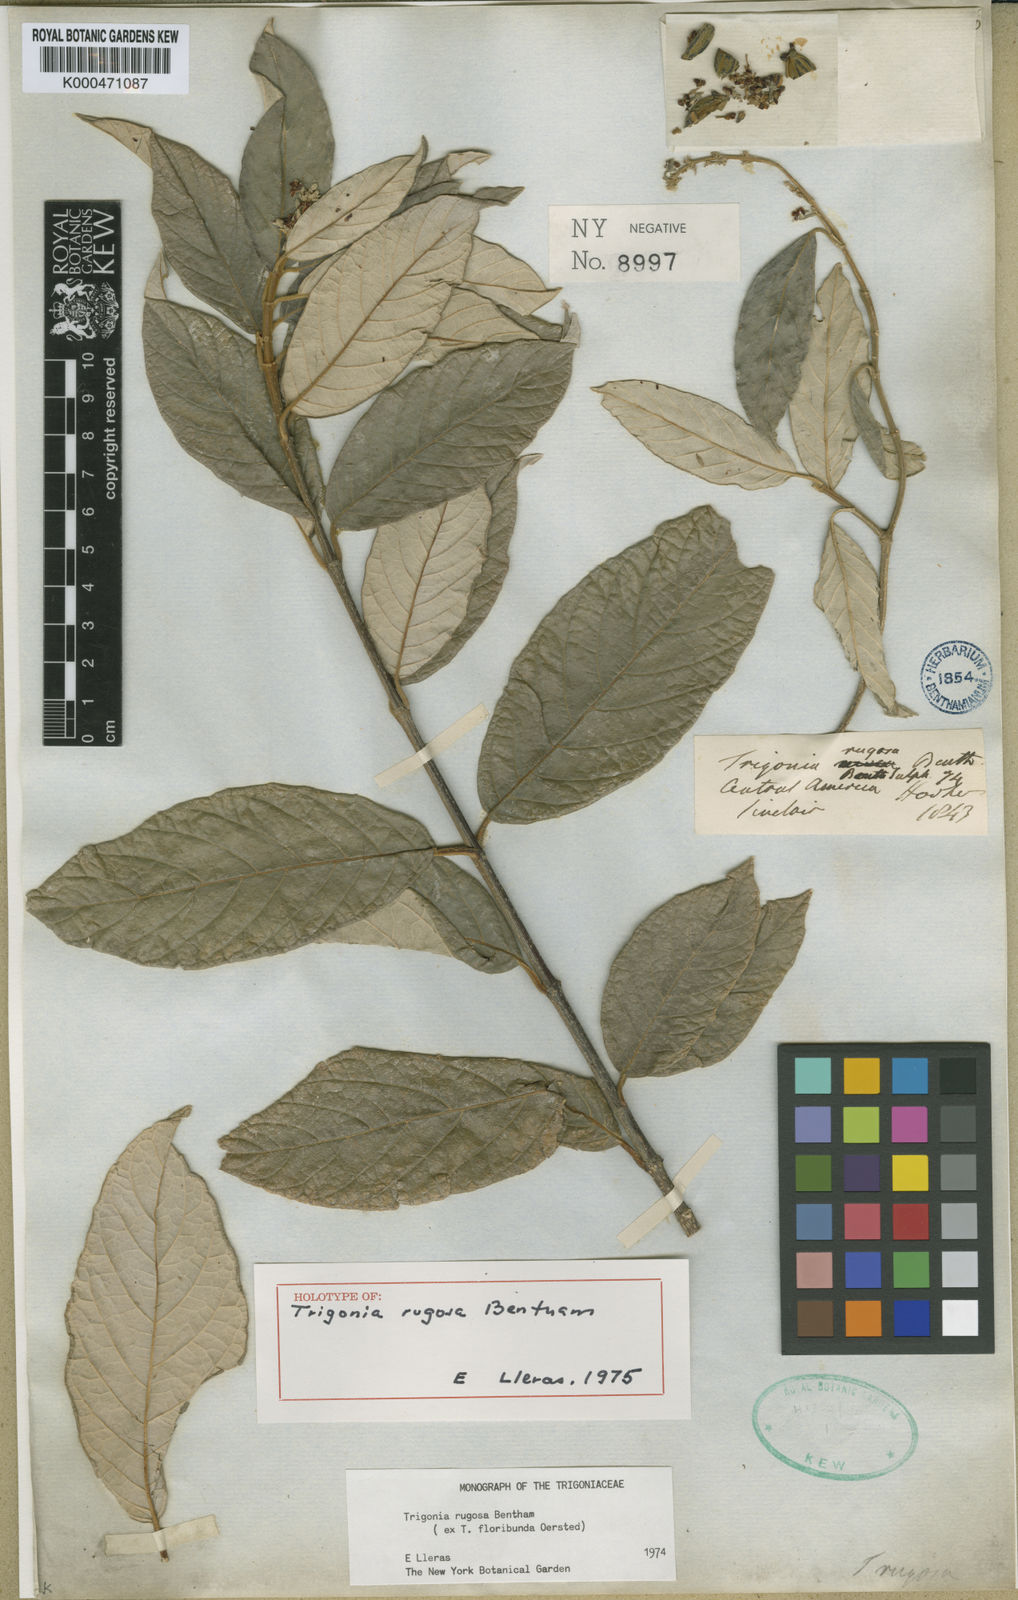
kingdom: Plantae
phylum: Tracheophyta
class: Magnoliopsida
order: Malpighiales
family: Trigoniaceae
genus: Trigonia
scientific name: Trigonia rugosa
